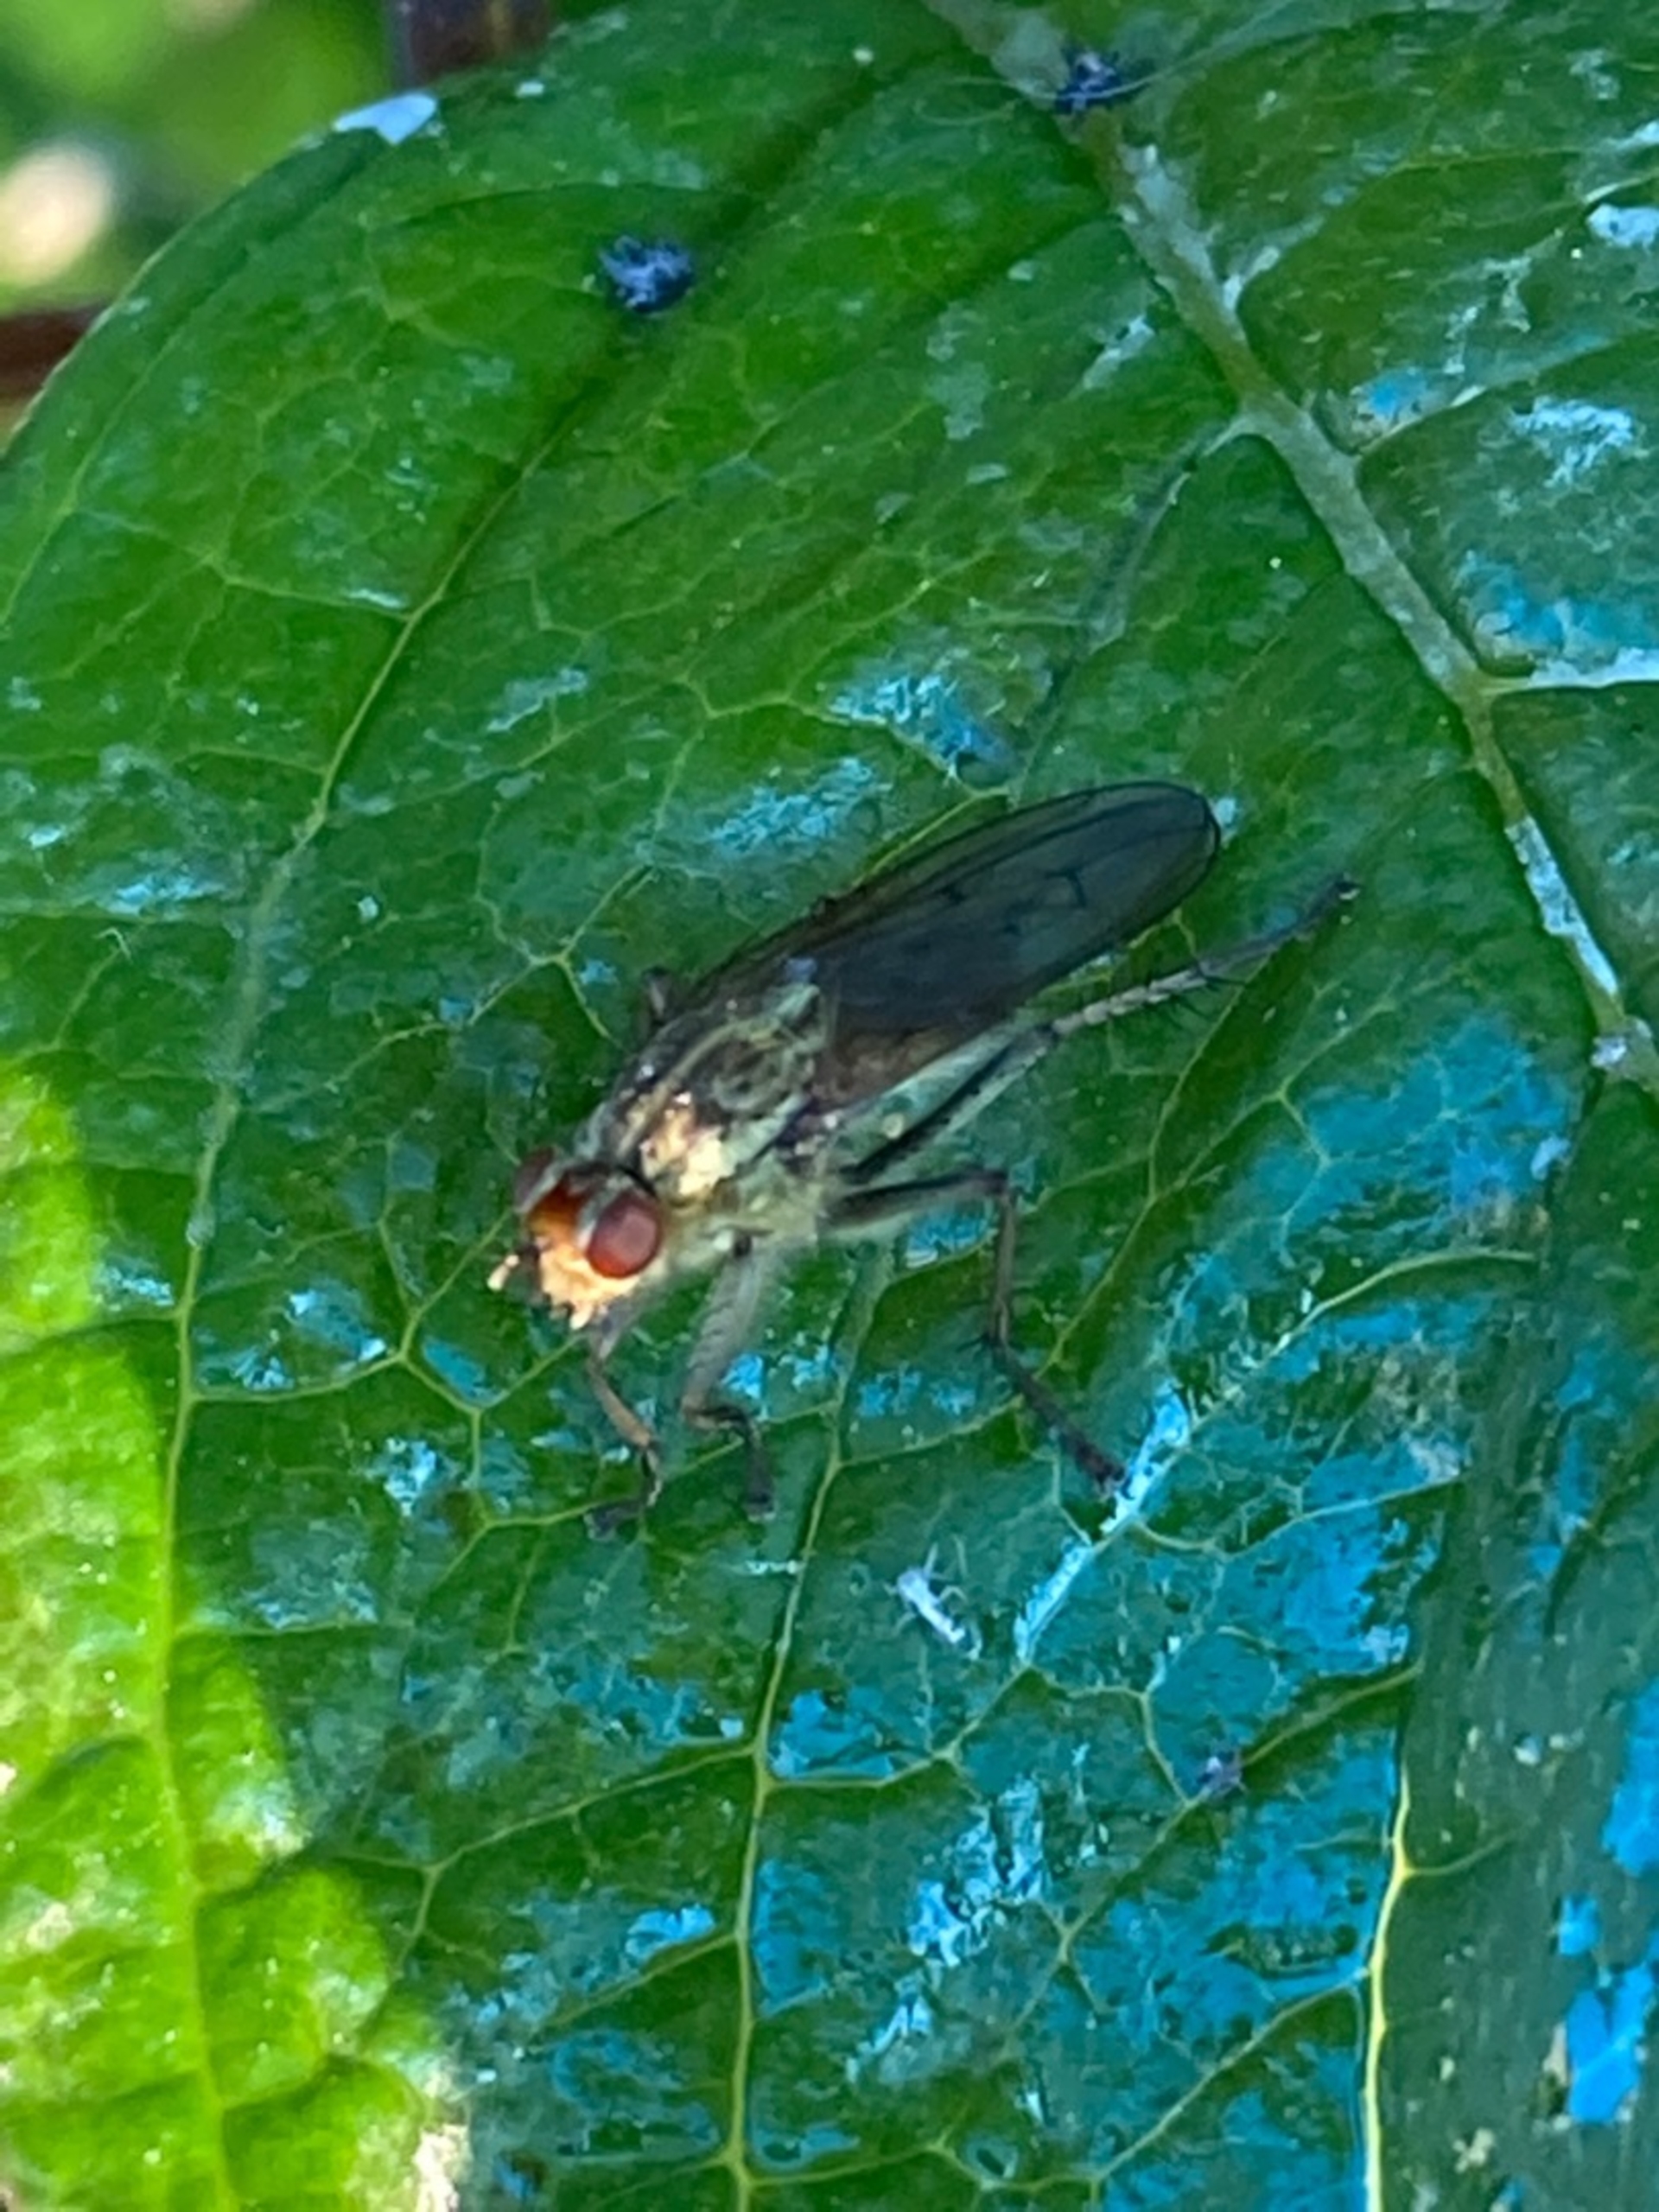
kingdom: Animalia
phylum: Arthropoda
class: Insecta
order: Diptera
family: Scathophagidae
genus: Scathophaga
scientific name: Scathophaga stercoraria
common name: Almindelig gødningsflue
